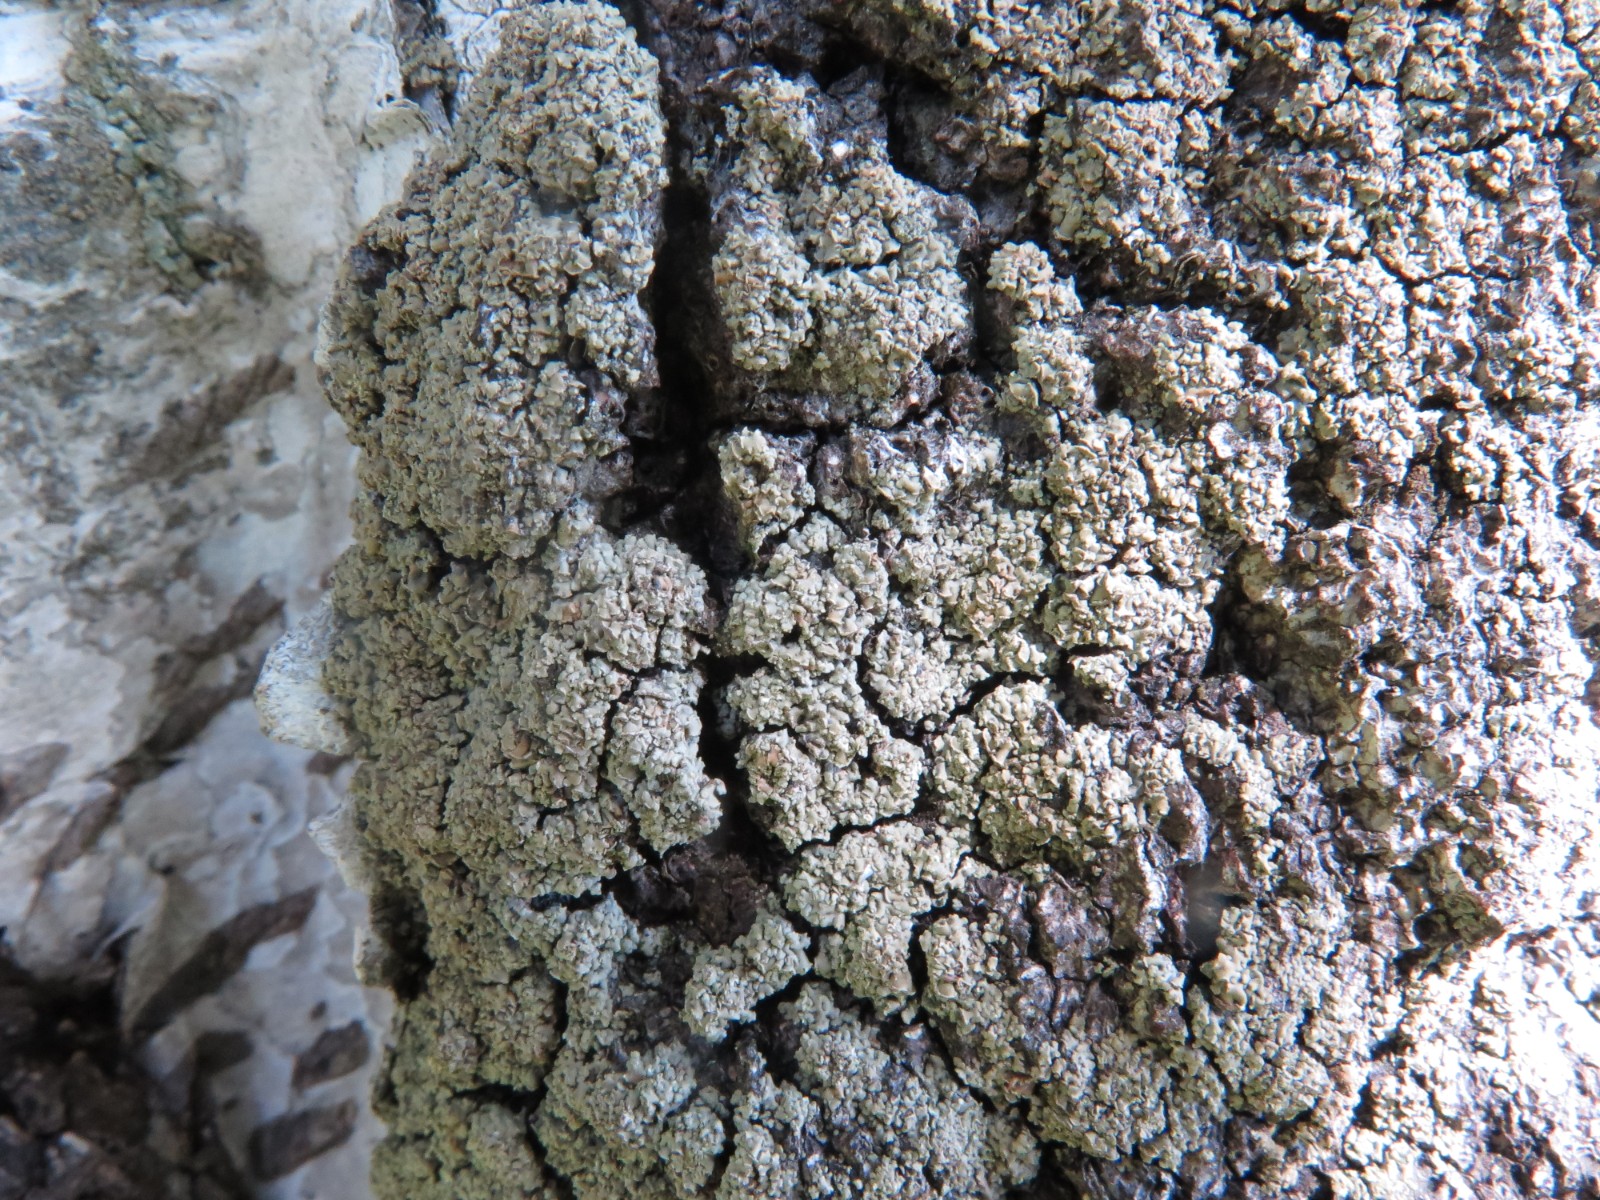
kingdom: Fungi
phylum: Ascomycota
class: Lecanoromycetes
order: Umbilicariales
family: Ophioparmaceae
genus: Hypocenomyce
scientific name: Hypocenomyce scalaris
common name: småskællet muslinglav
